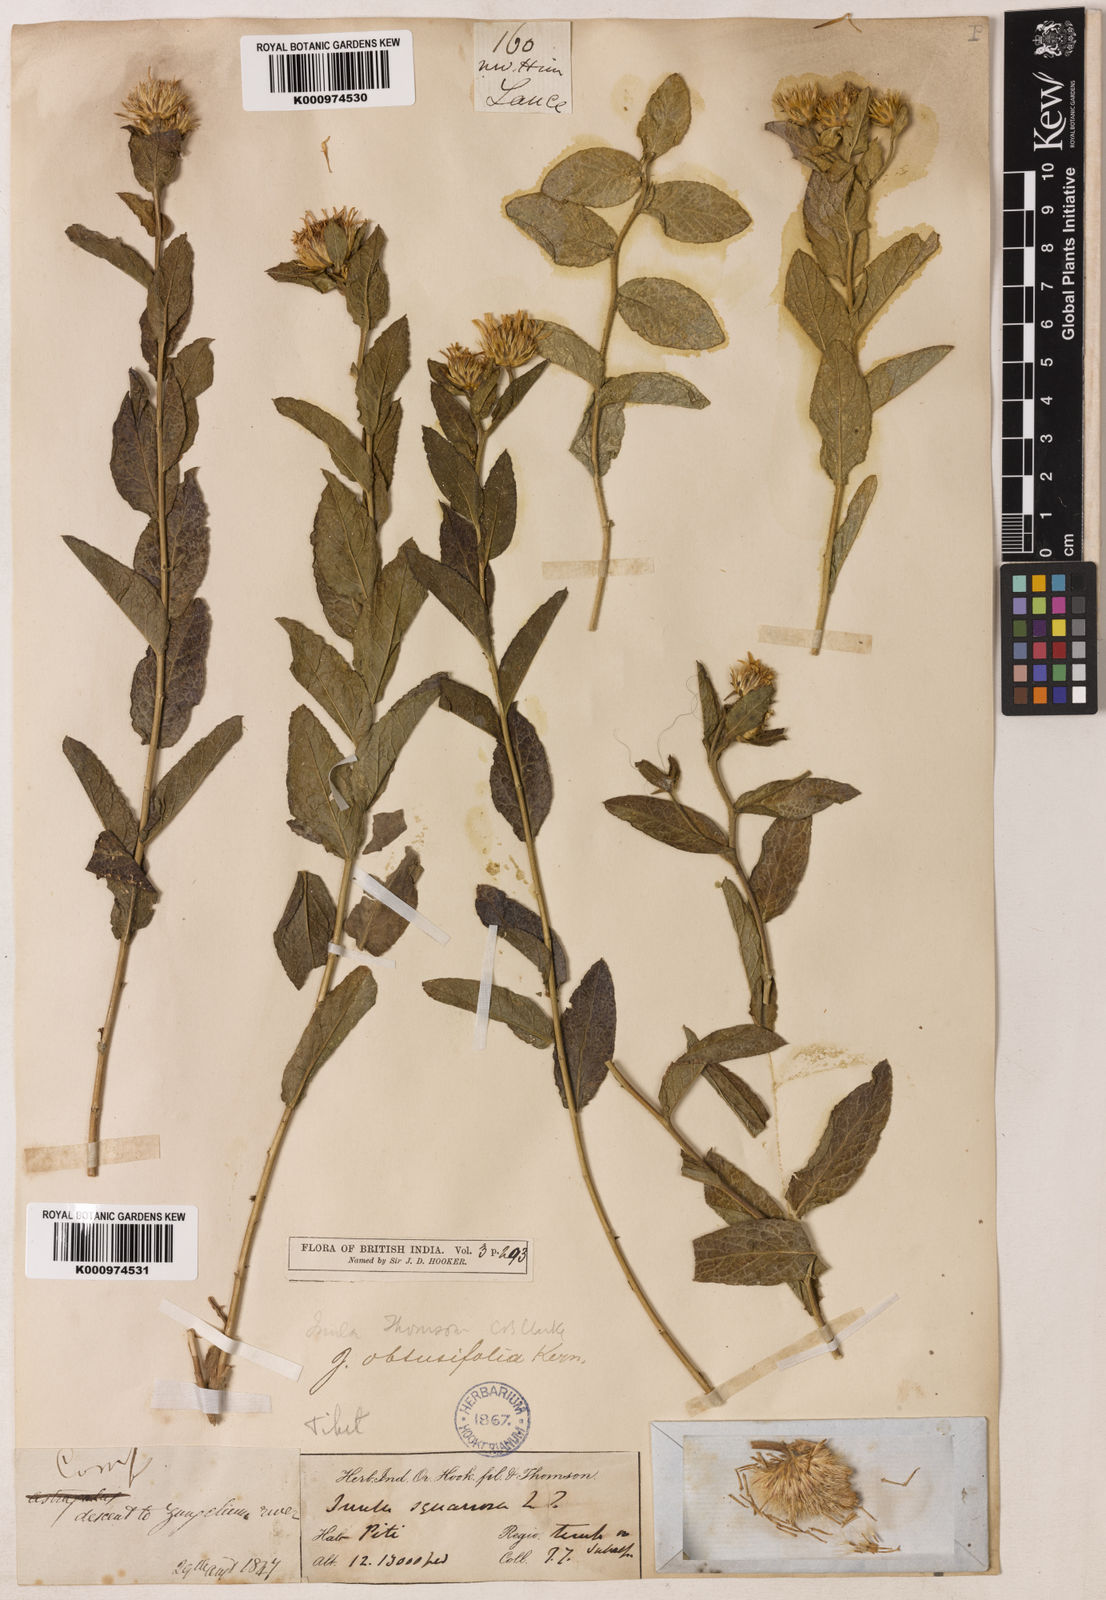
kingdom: Plantae
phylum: Tracheophyta
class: Magnoliopsida
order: Asterales
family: Asteraceae
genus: Inula
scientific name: Inula obtusifolia
